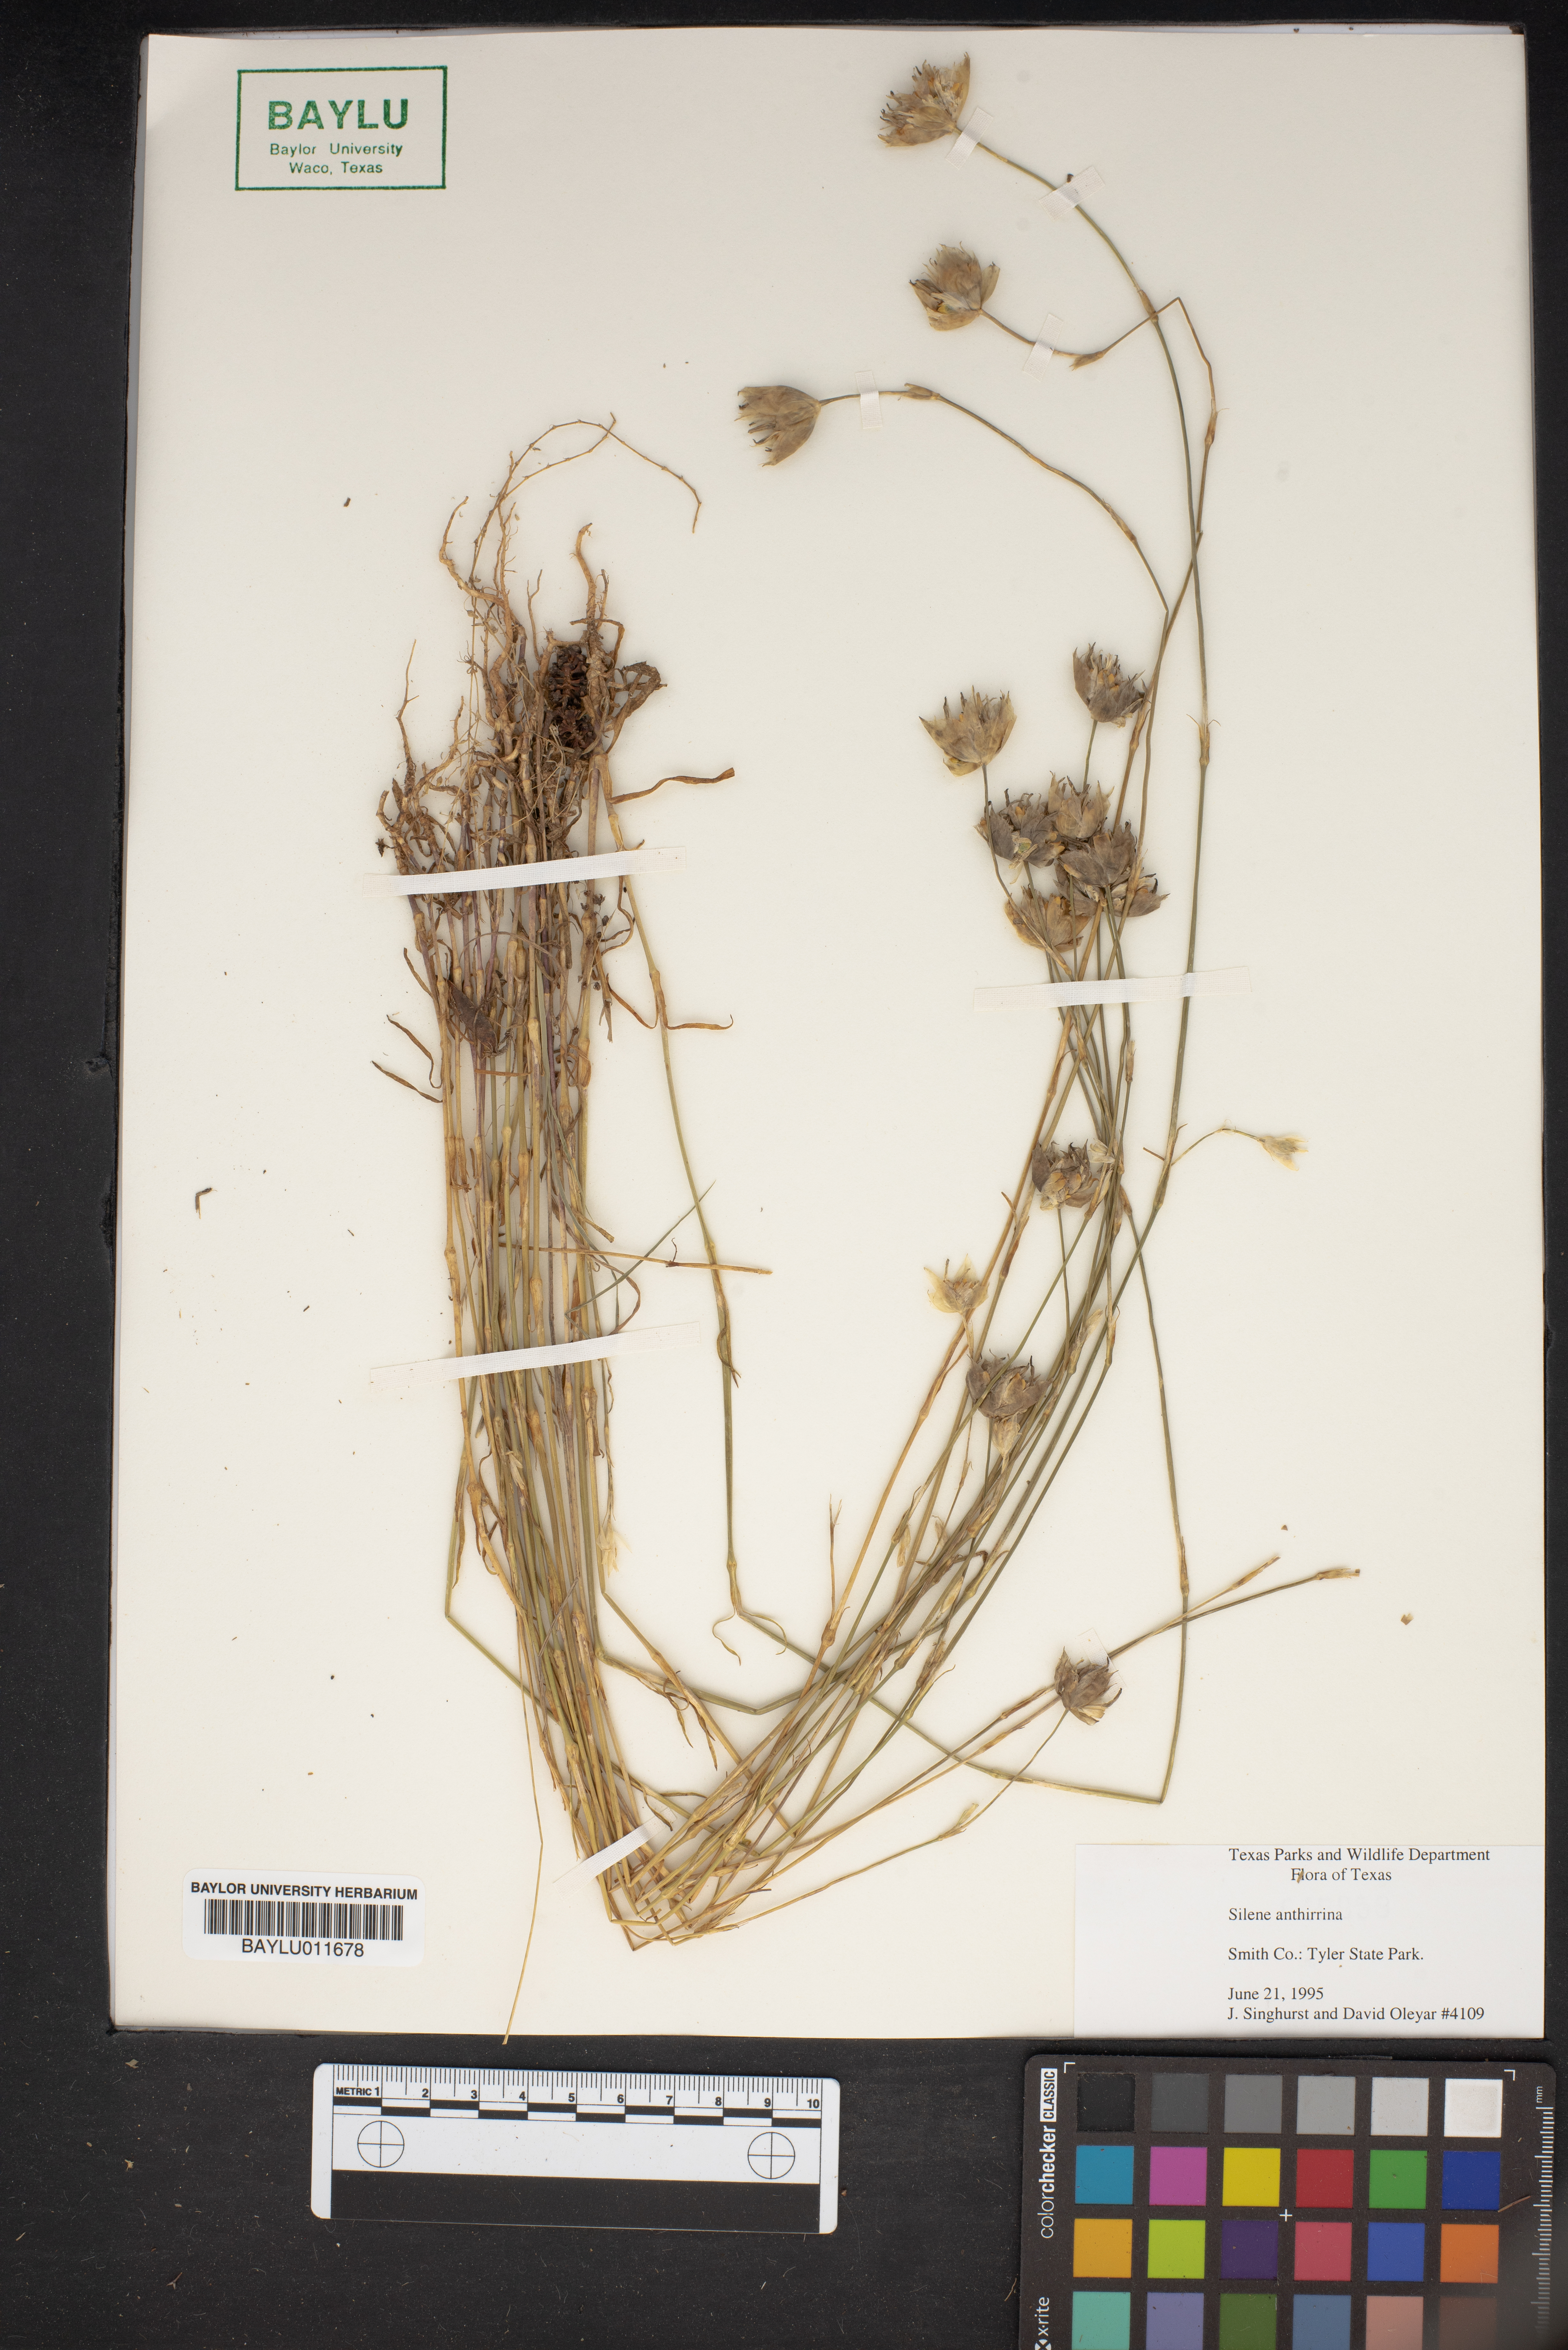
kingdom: Plantae
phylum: Tracheophyta
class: Magnoliopsida
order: Caryophyllales
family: Caryophyllaceae
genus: Silene
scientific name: Silene antirrhina
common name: Sleepy catchfly
